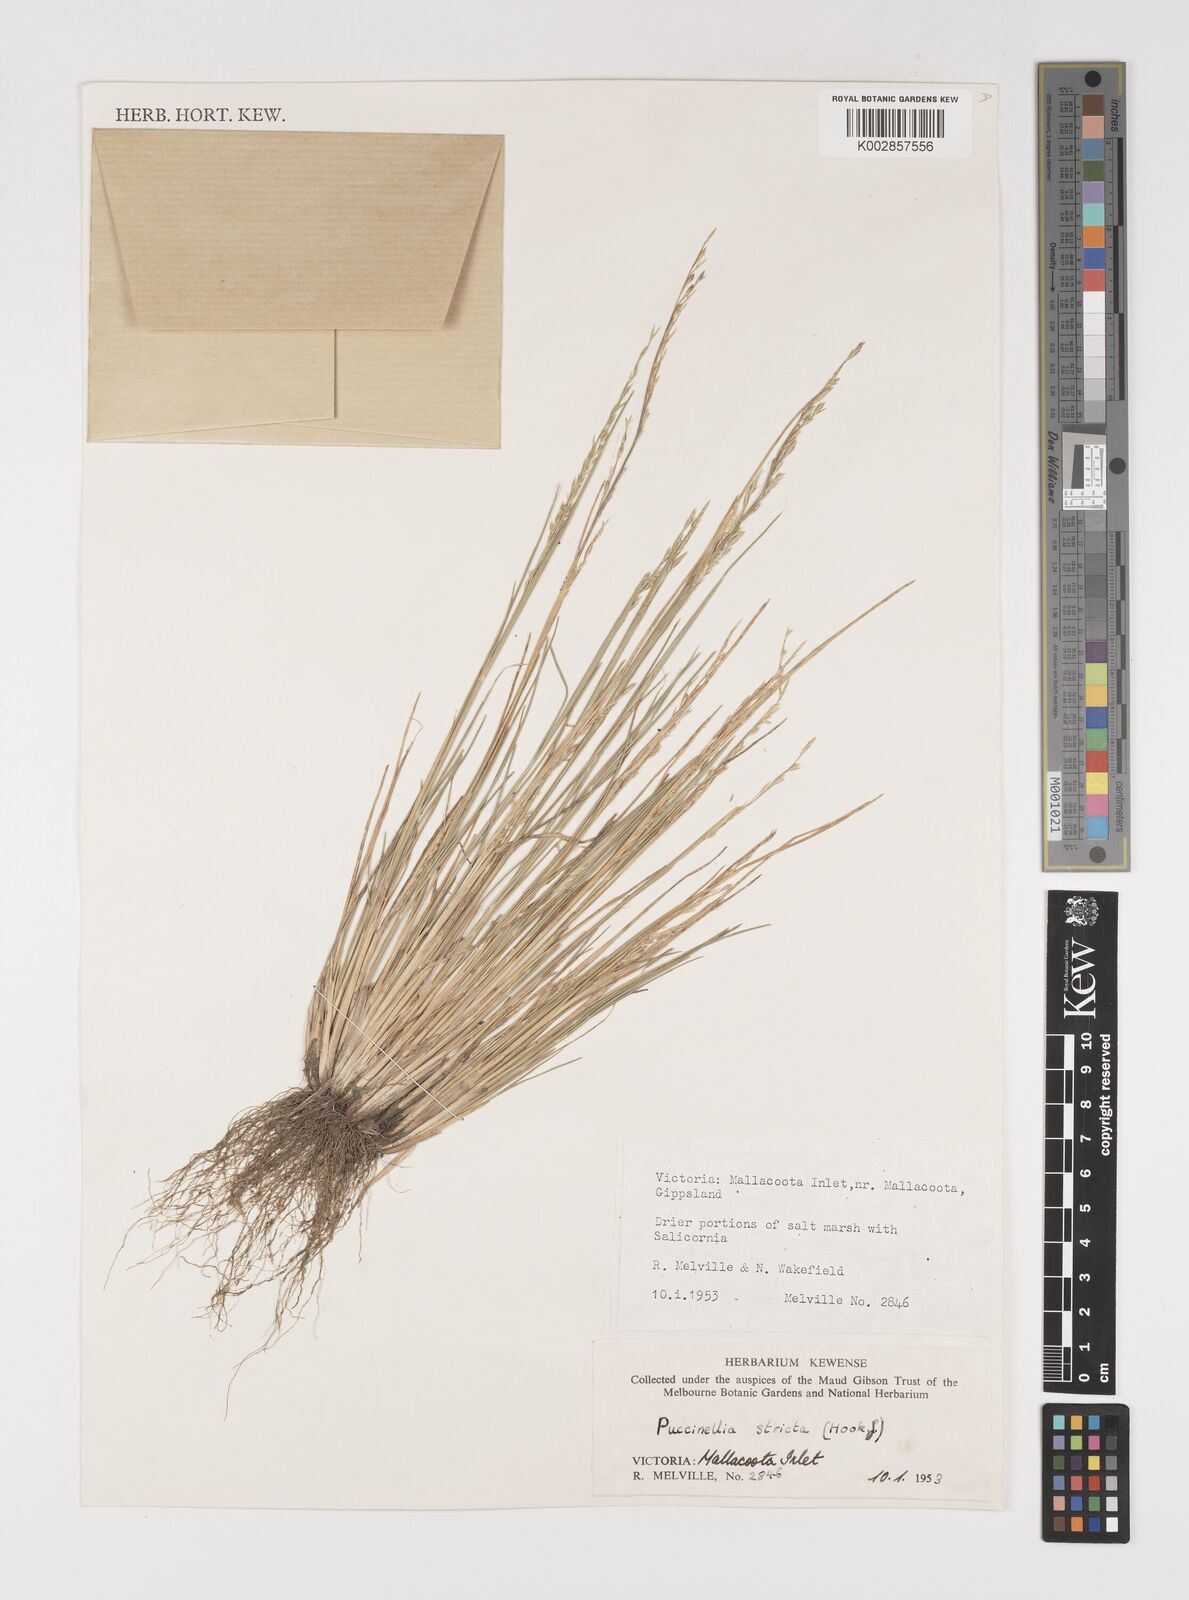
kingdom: Plantae
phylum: Tracheophyta
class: Liliopsida
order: Poales
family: Poaceae
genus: Puccinellia
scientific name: Puccinellia stricta
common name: Australian saltmarsh grass
